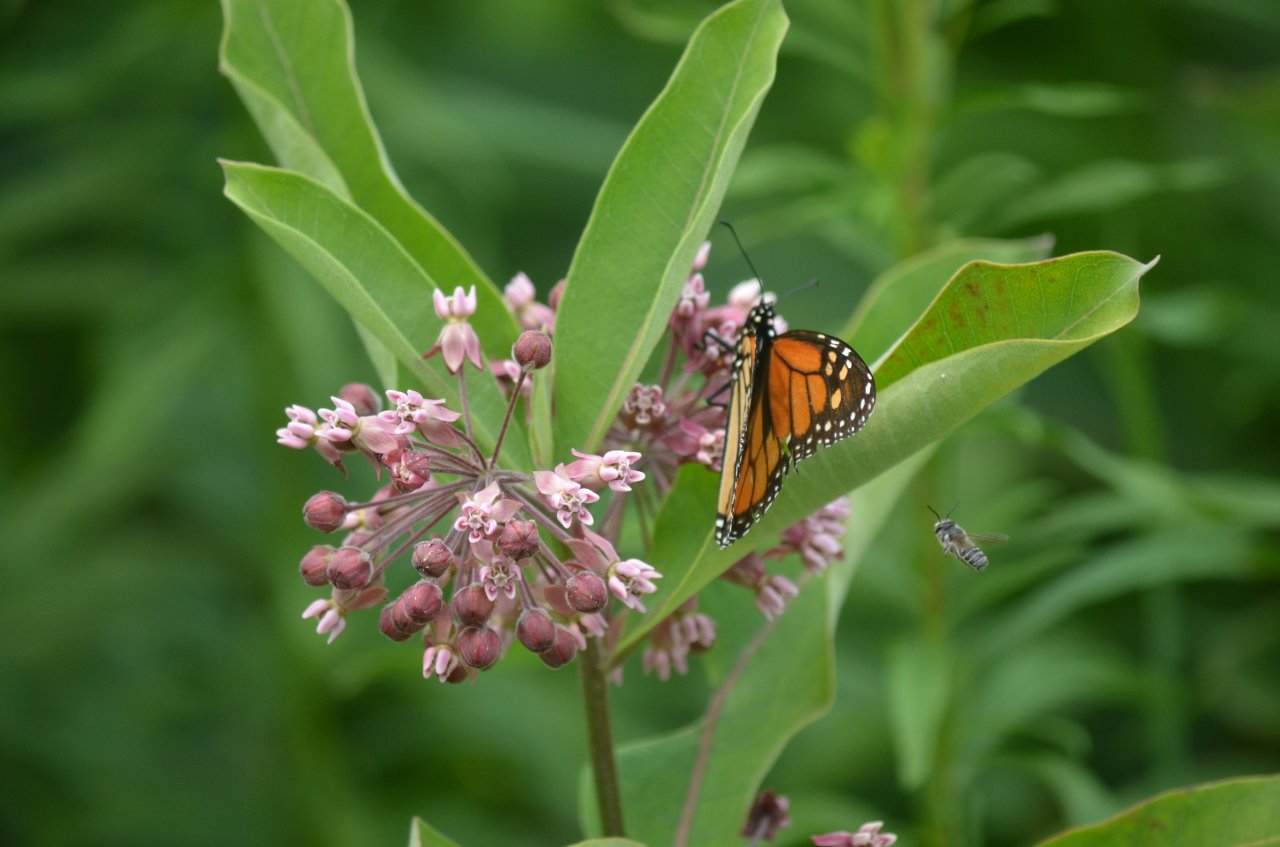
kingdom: Animalia
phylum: Arthropoda
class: Insecta
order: Lepidoptera
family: Nymphalidae
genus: Danaus
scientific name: Danaus plexippus
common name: Monarch
